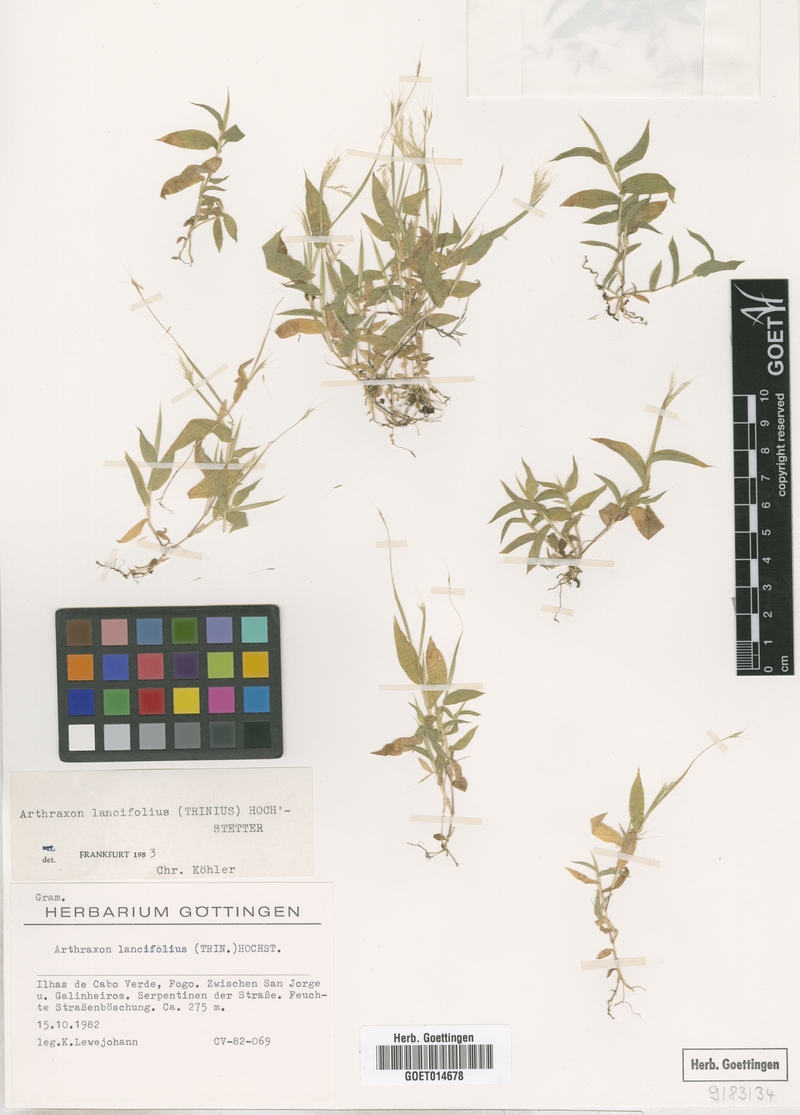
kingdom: Plantae
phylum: Tracheophyta
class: Liliopsida
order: Poales
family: Poaceae
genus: Arthraxon
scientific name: Arthraxon lancifolius
